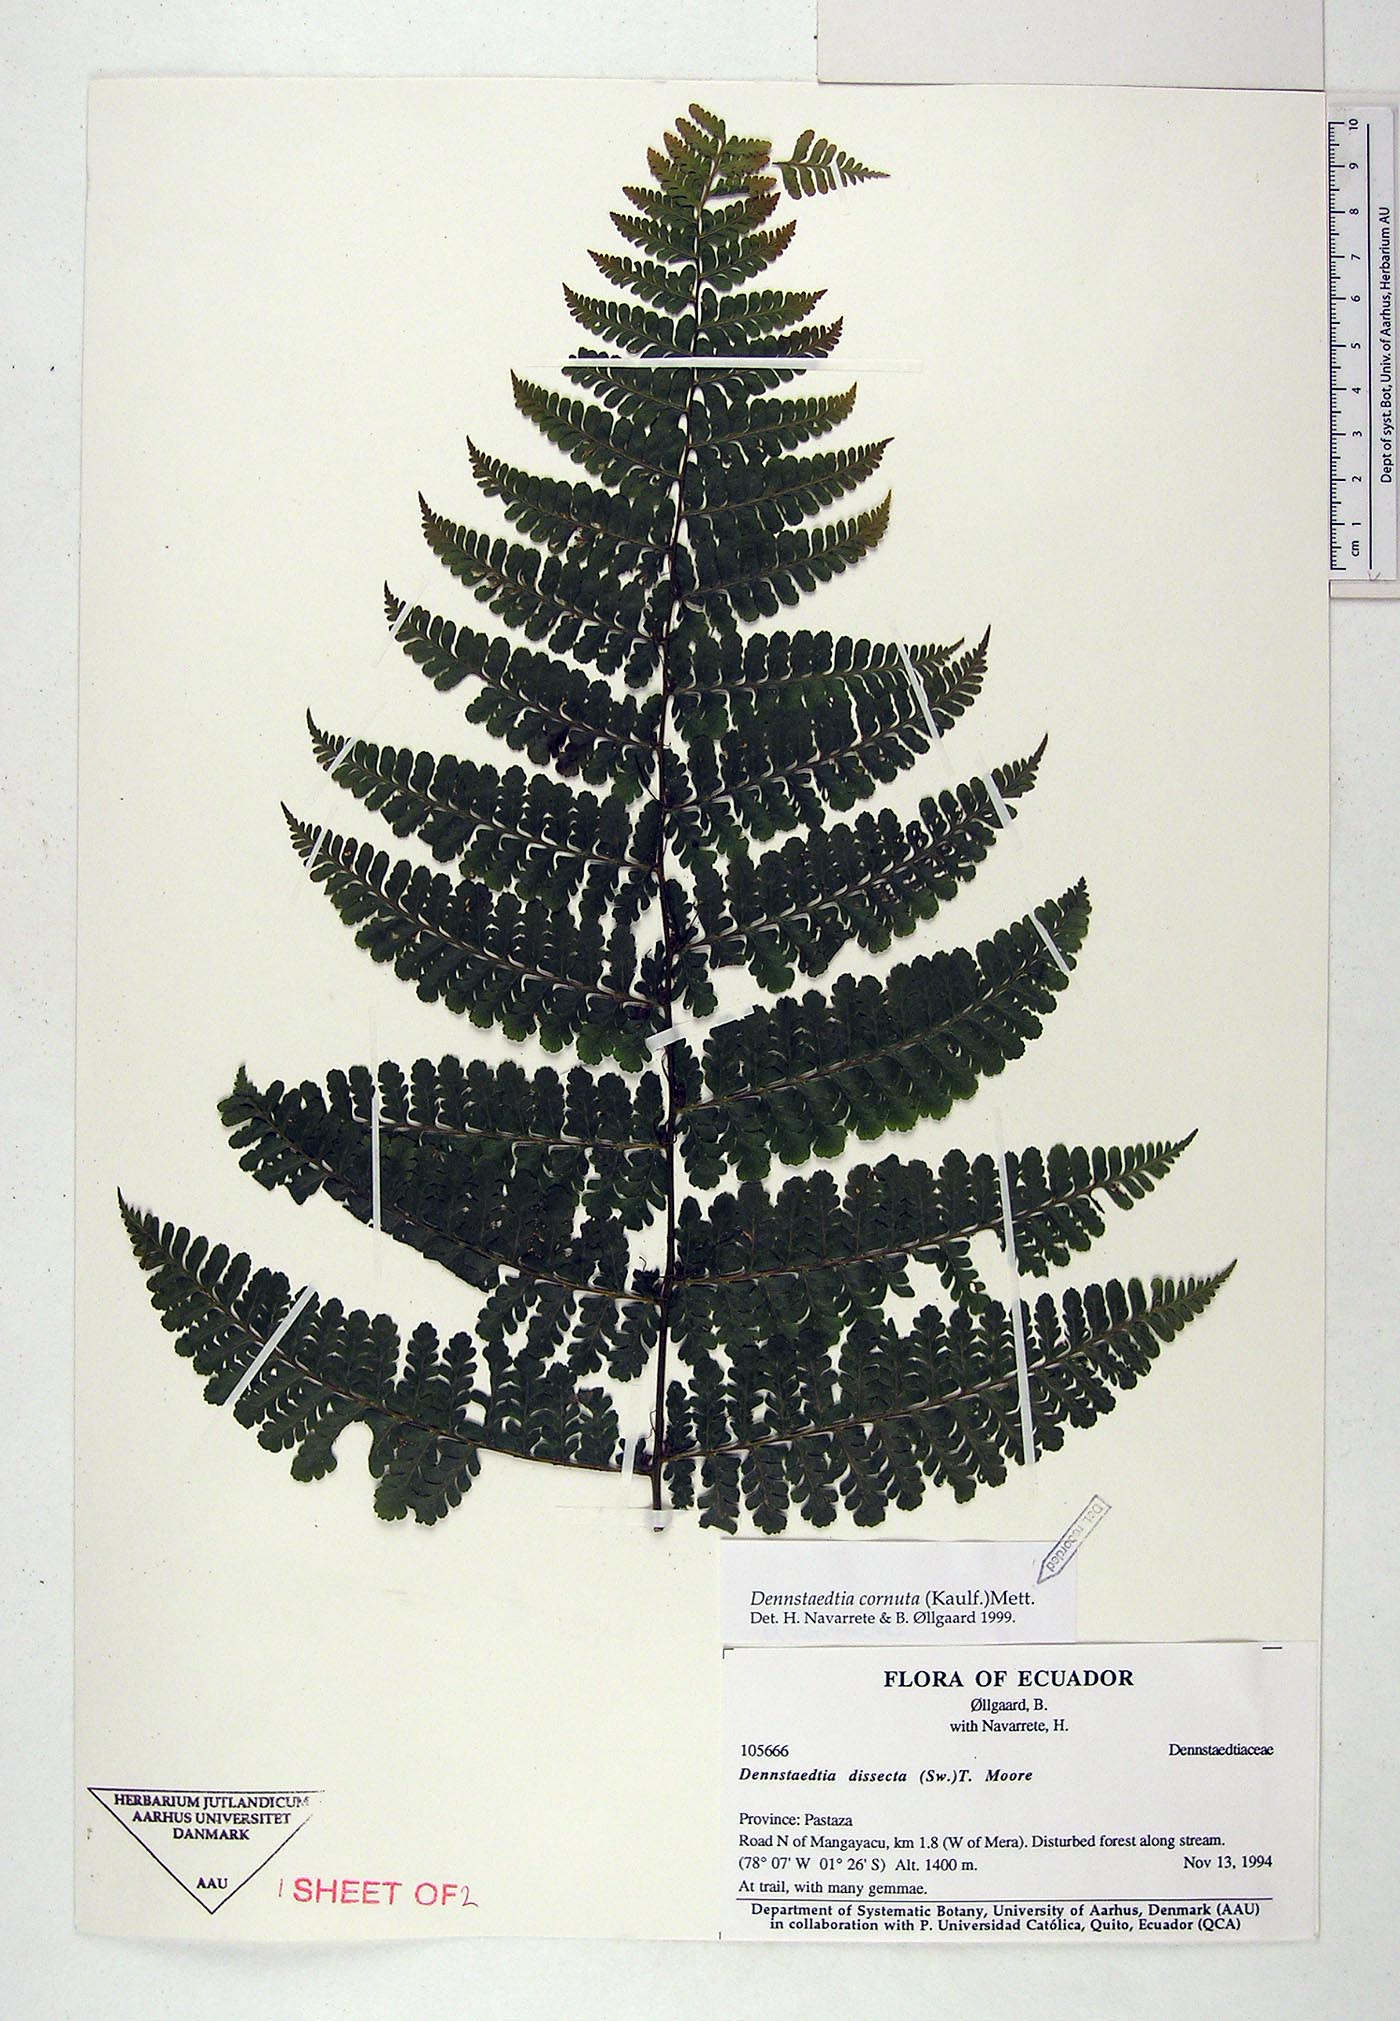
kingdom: Plantae
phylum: Tracheophyta
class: Polypodiopsida
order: Polypodiales
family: Dennstaedtiaceae
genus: Dennstaedtia
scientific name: Dennstaedtia cornuta
